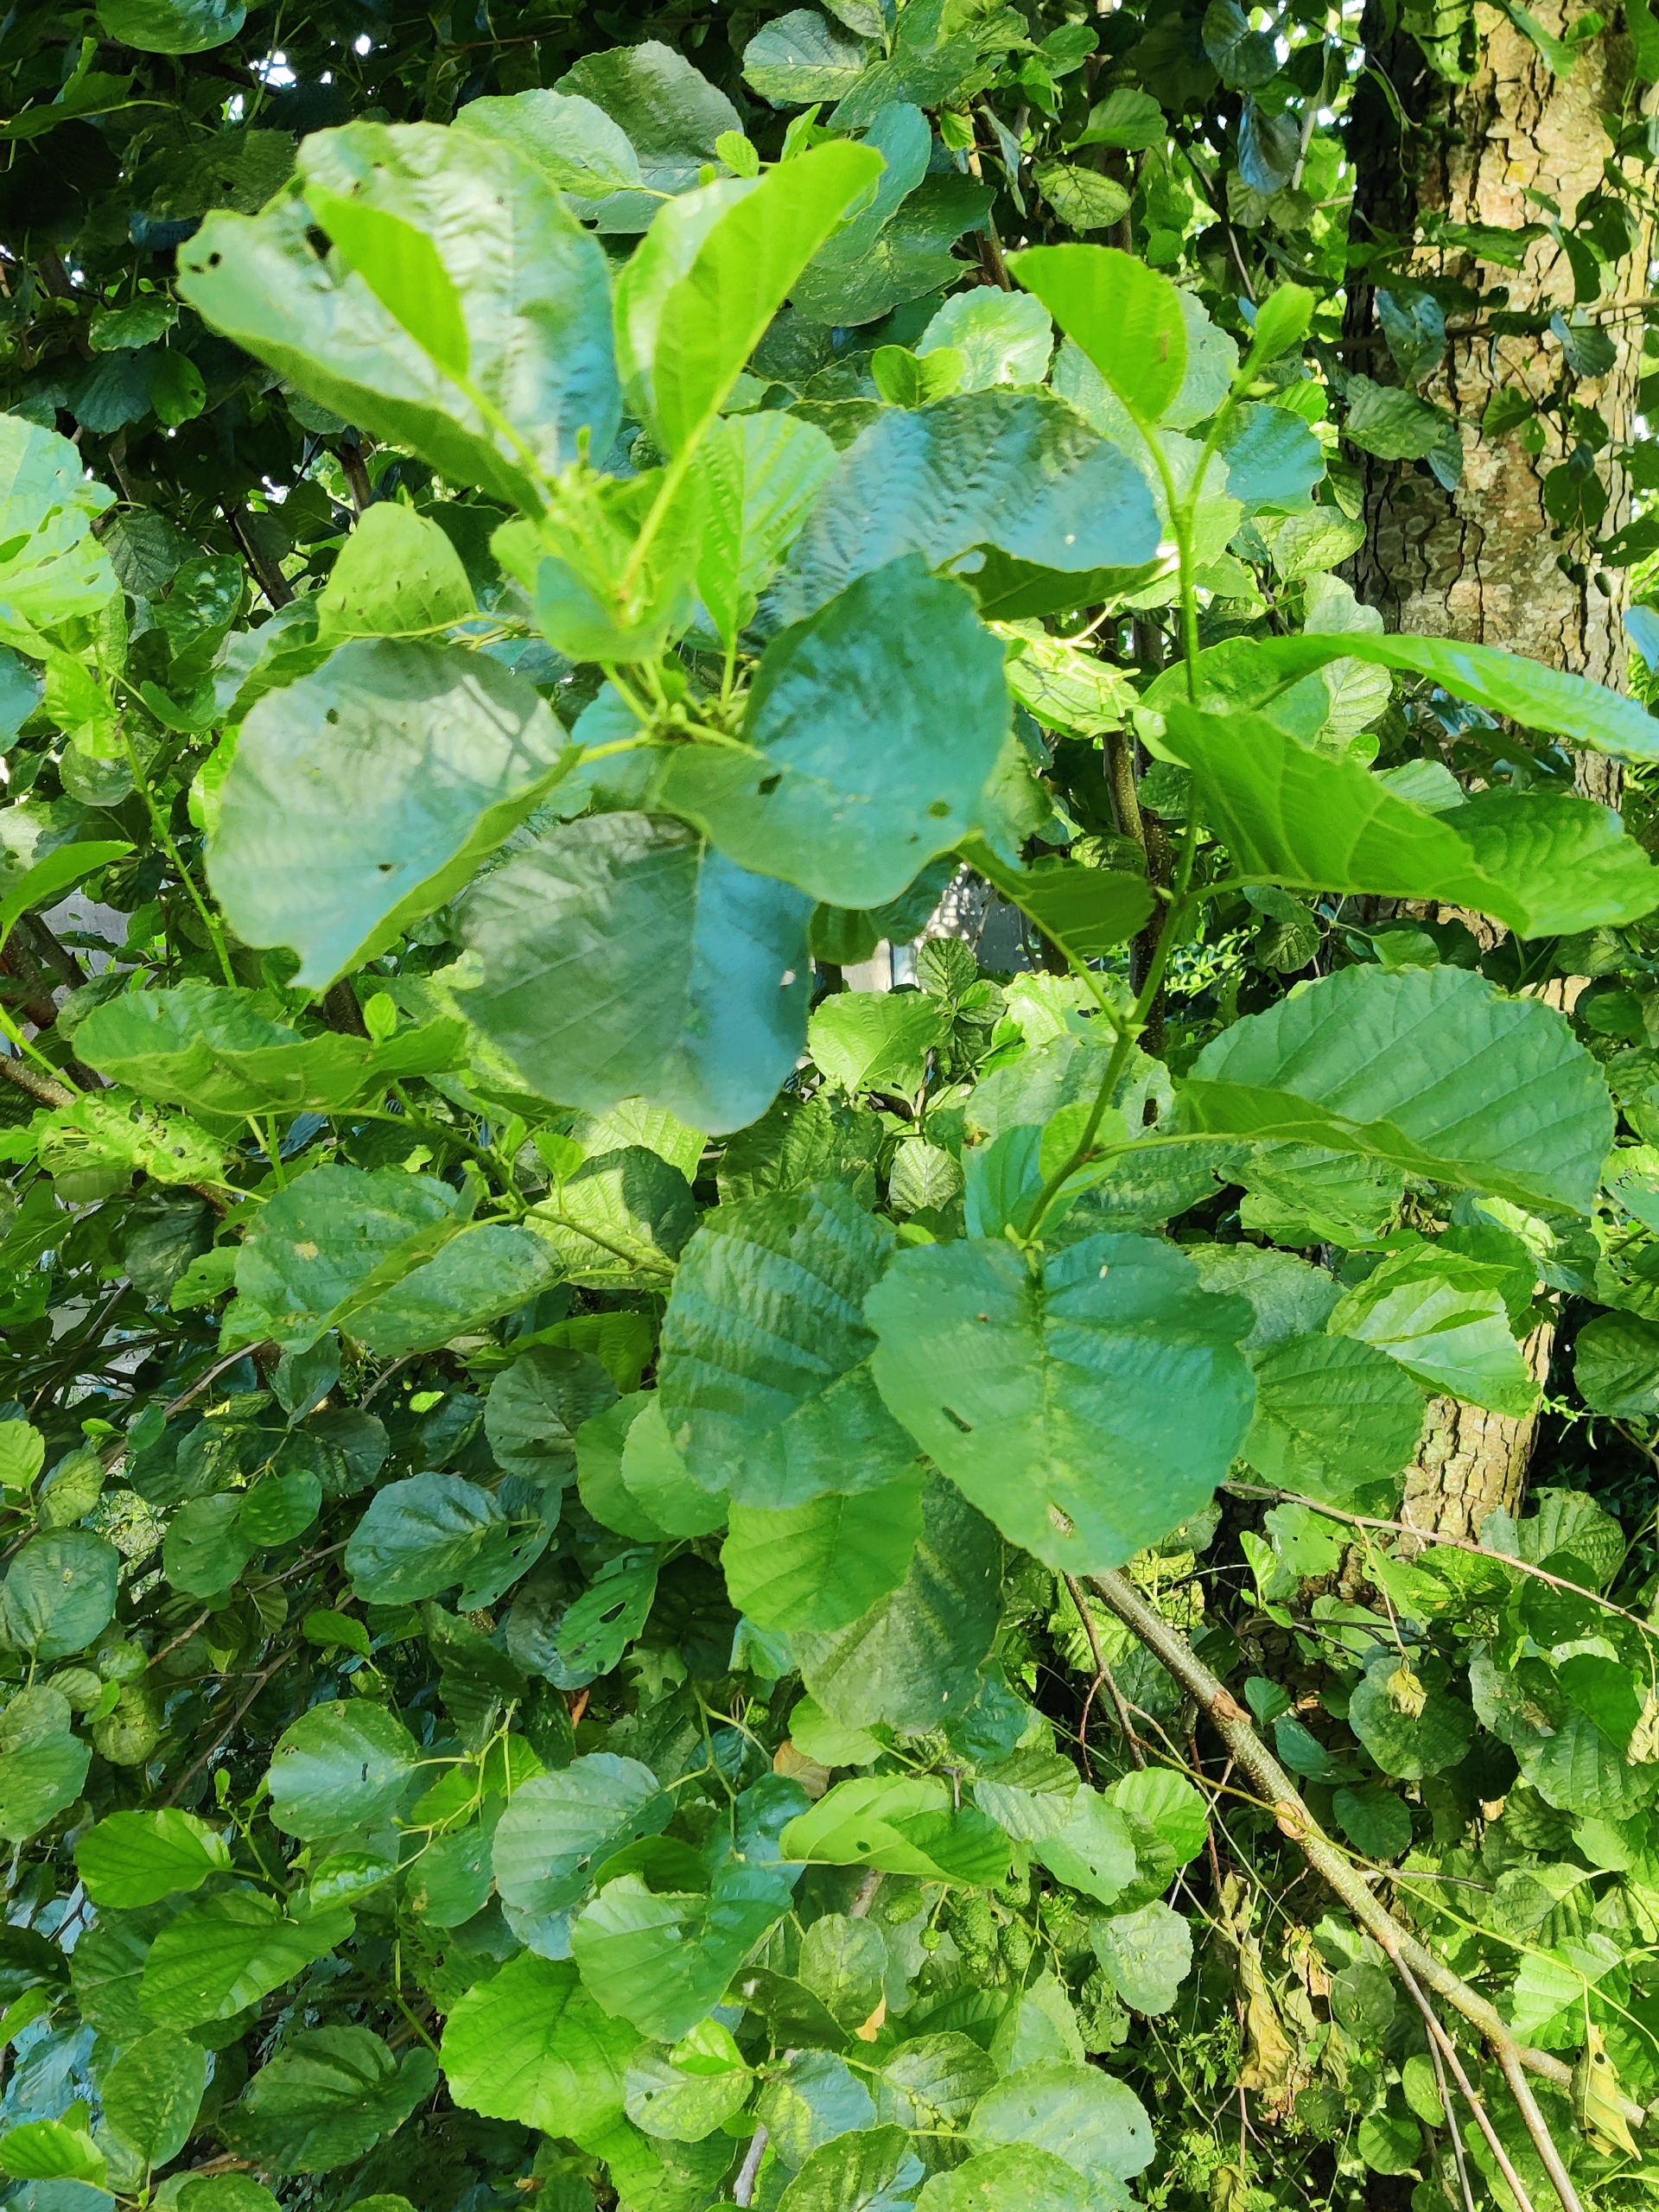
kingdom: Plantae
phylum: Tracheophyta
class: Magnoliopsida
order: Fagales
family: Betulaceae
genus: Alnus
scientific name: Alnus glutinosa
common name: Rød-el
